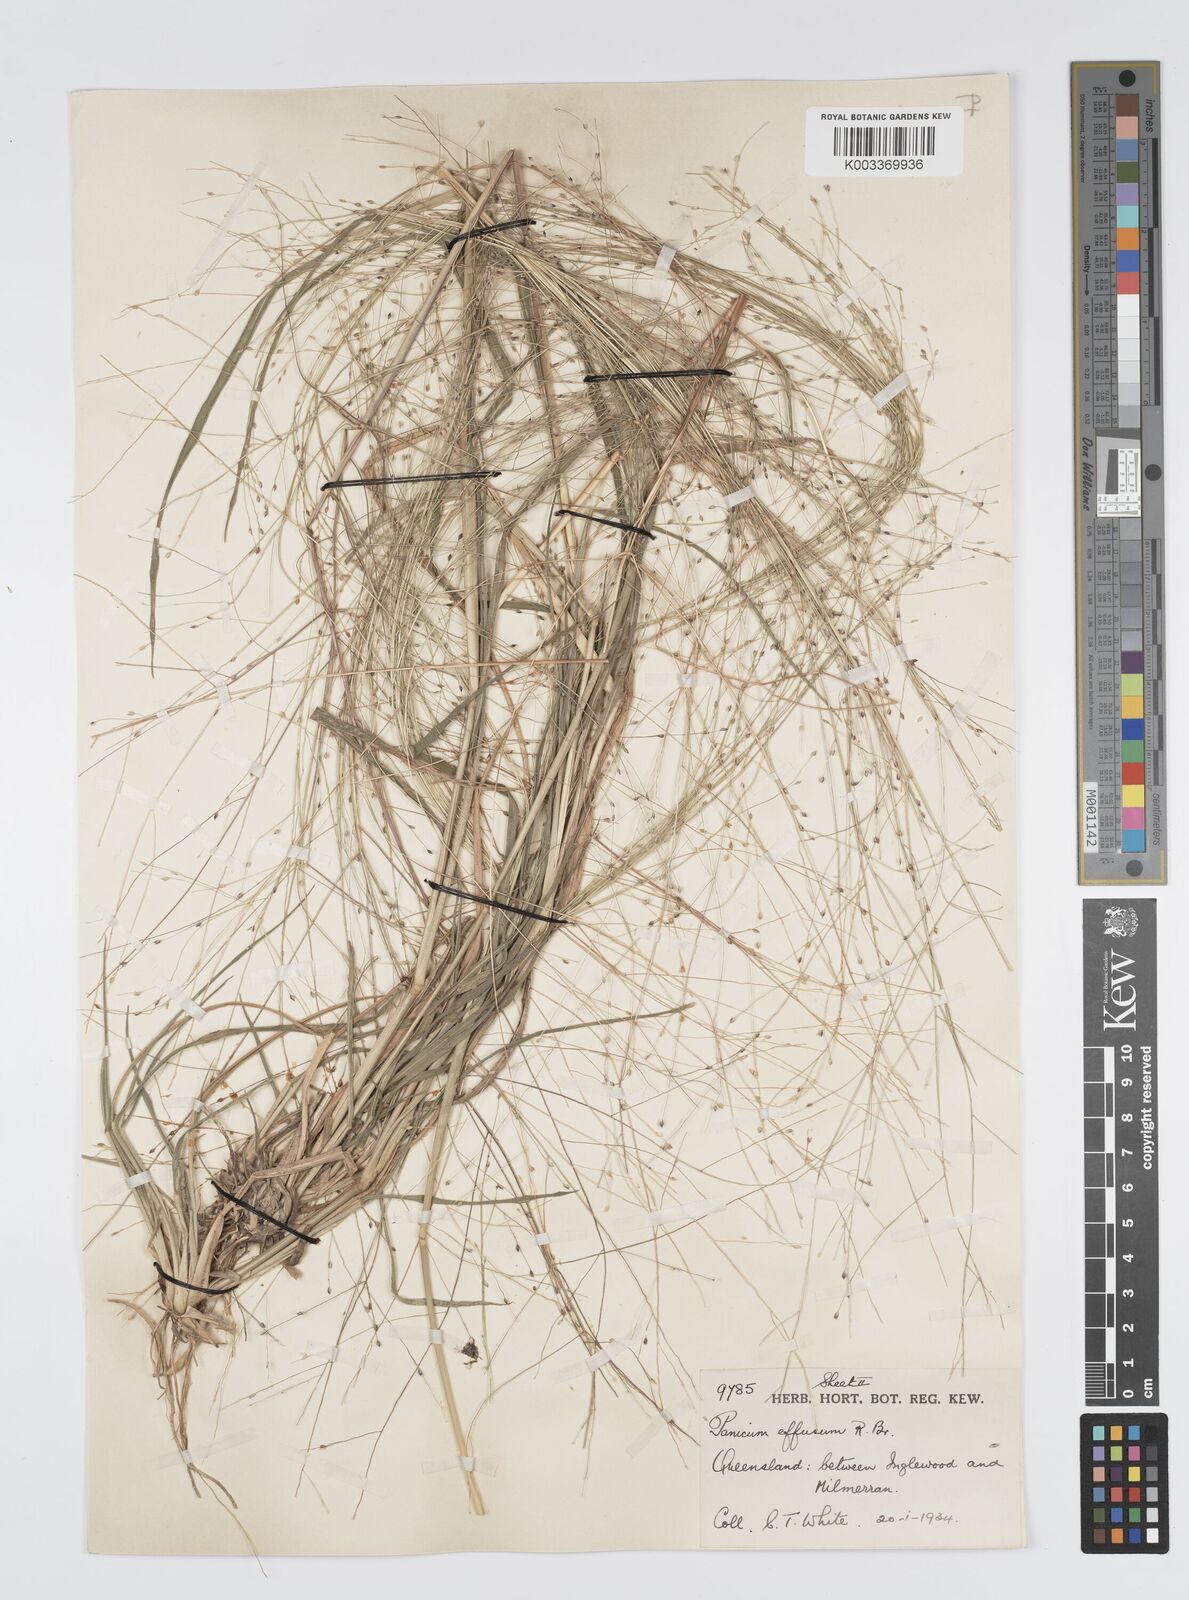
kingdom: Plantae
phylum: Tracheophyta
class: Liliopsida
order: Poales
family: Poaceae
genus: Panicum
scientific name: Panicum effusum
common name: Hairy panic grass
